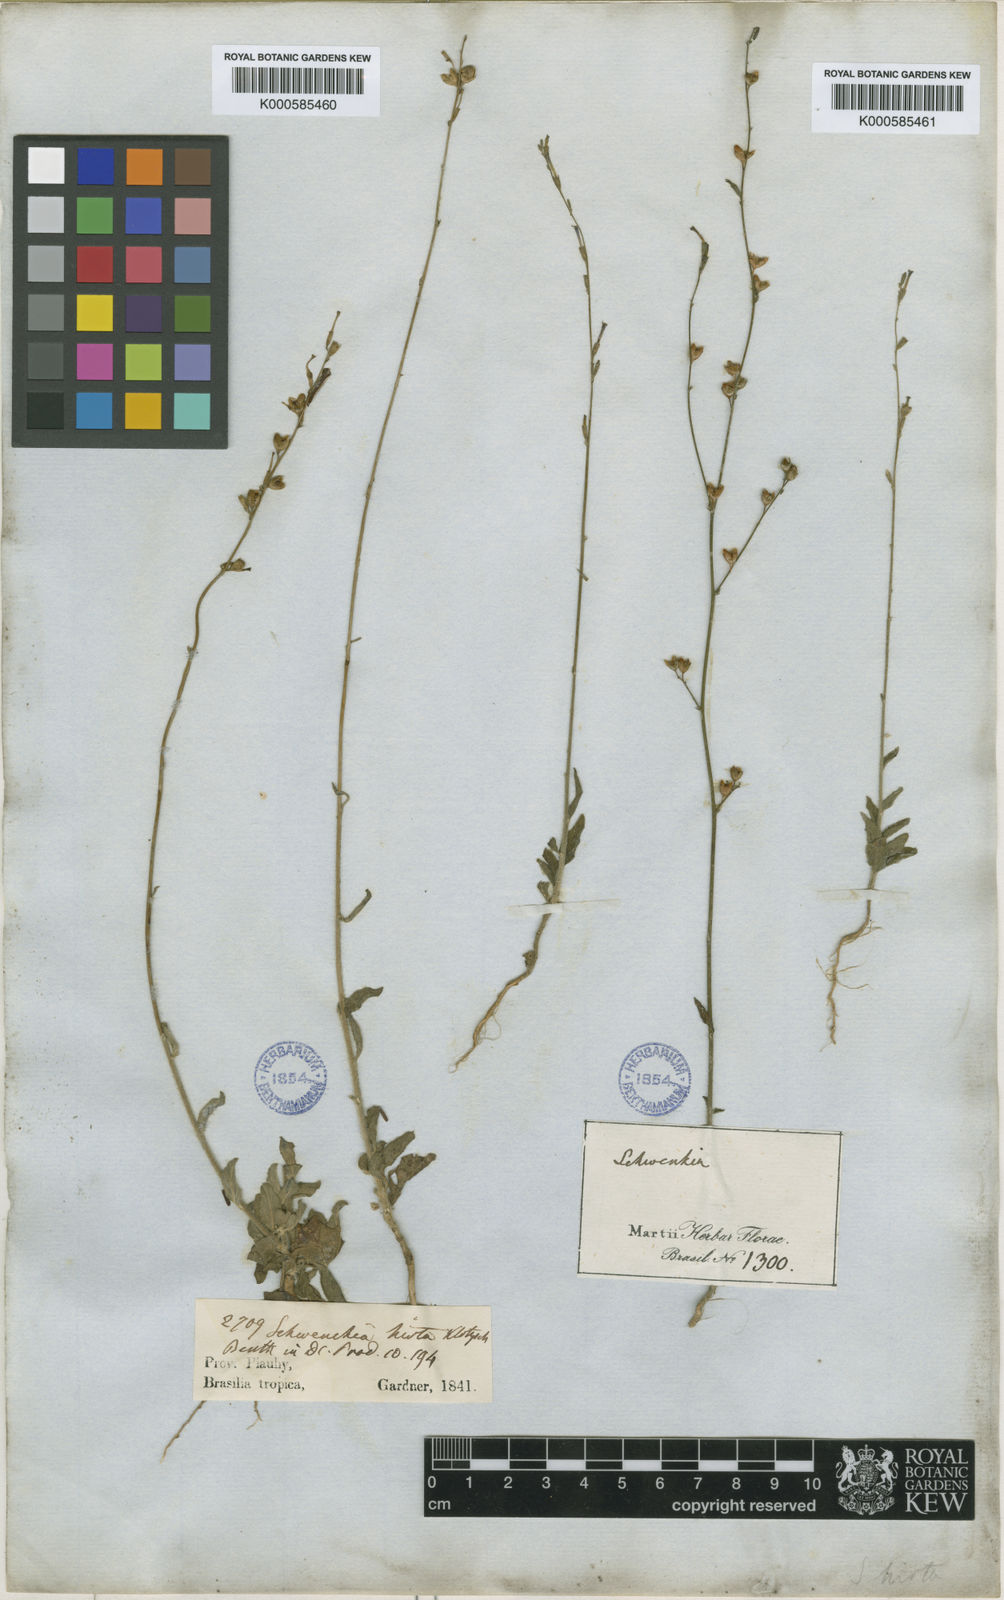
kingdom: Plantae
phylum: Tracheophyta
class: Magnoliopsida
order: Solanales
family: Solanaceae
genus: Schwenckia
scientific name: Schwenckia americana
